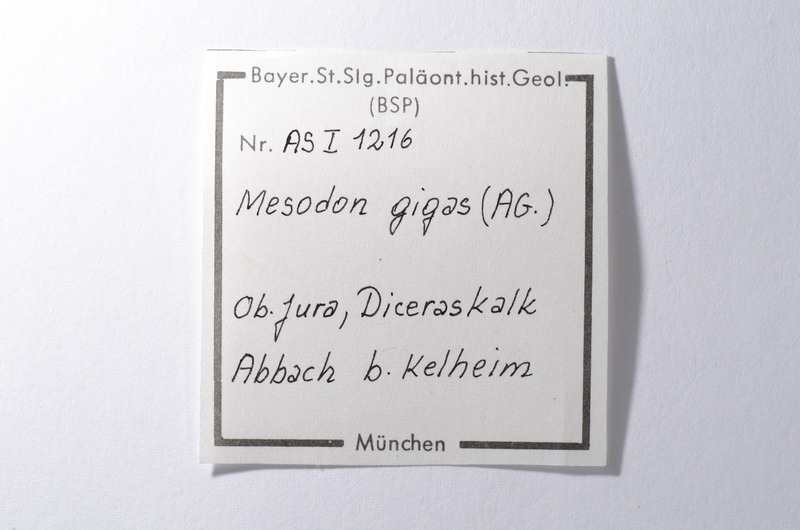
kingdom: Animalia
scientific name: Animalia
